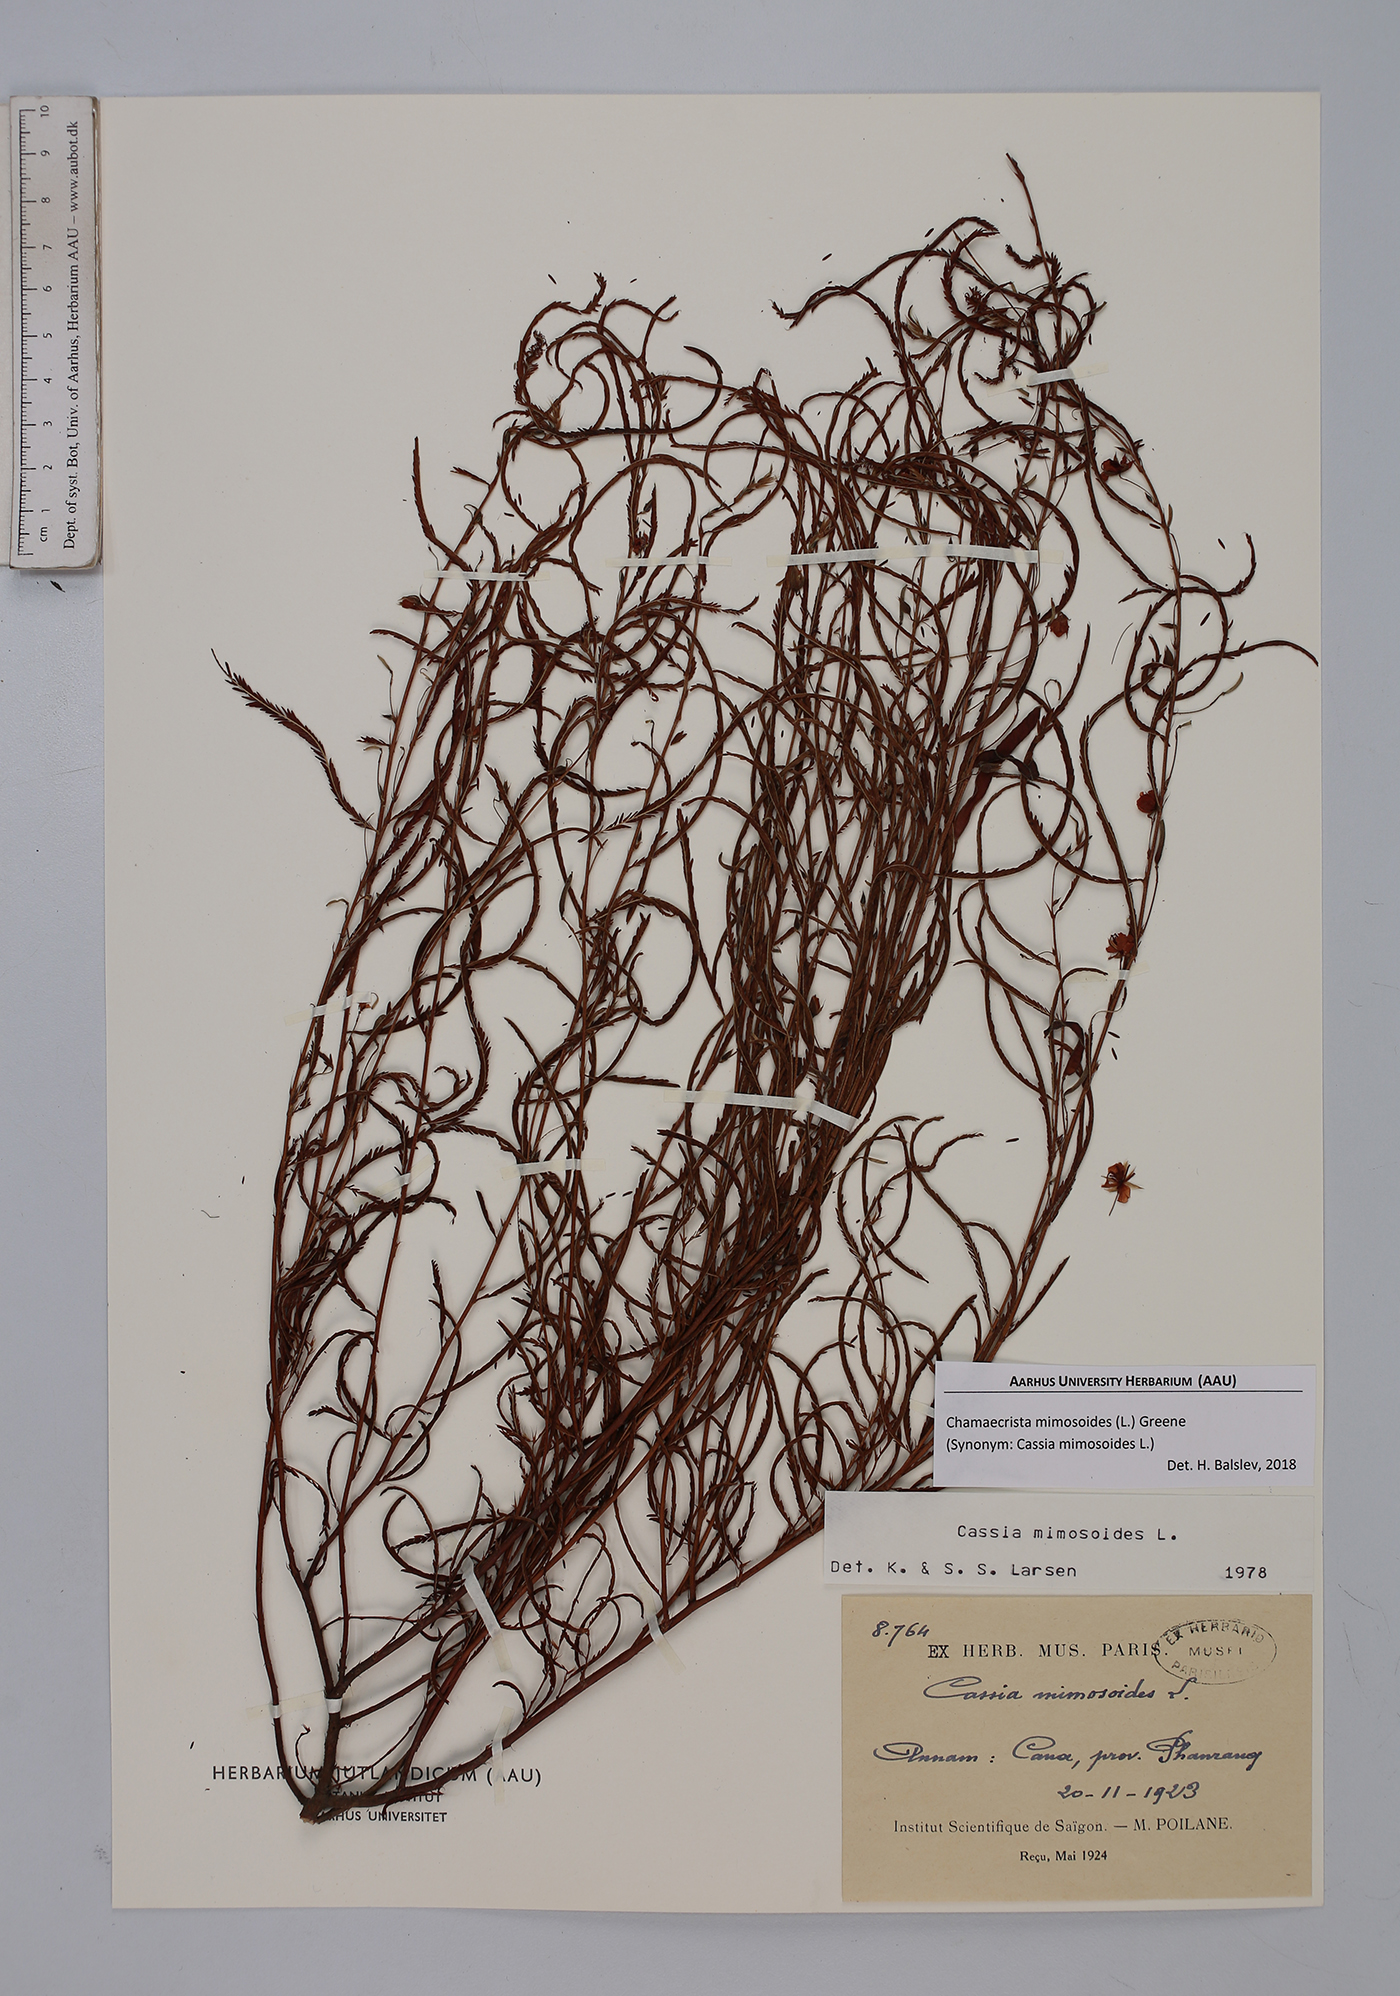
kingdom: Plantae
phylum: Tracheophyta
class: Magnoliopsida
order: Fabales
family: Fabaceae
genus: Chamaecrista
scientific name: Chamaecrista mimosoides
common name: Fish-bone cassia
